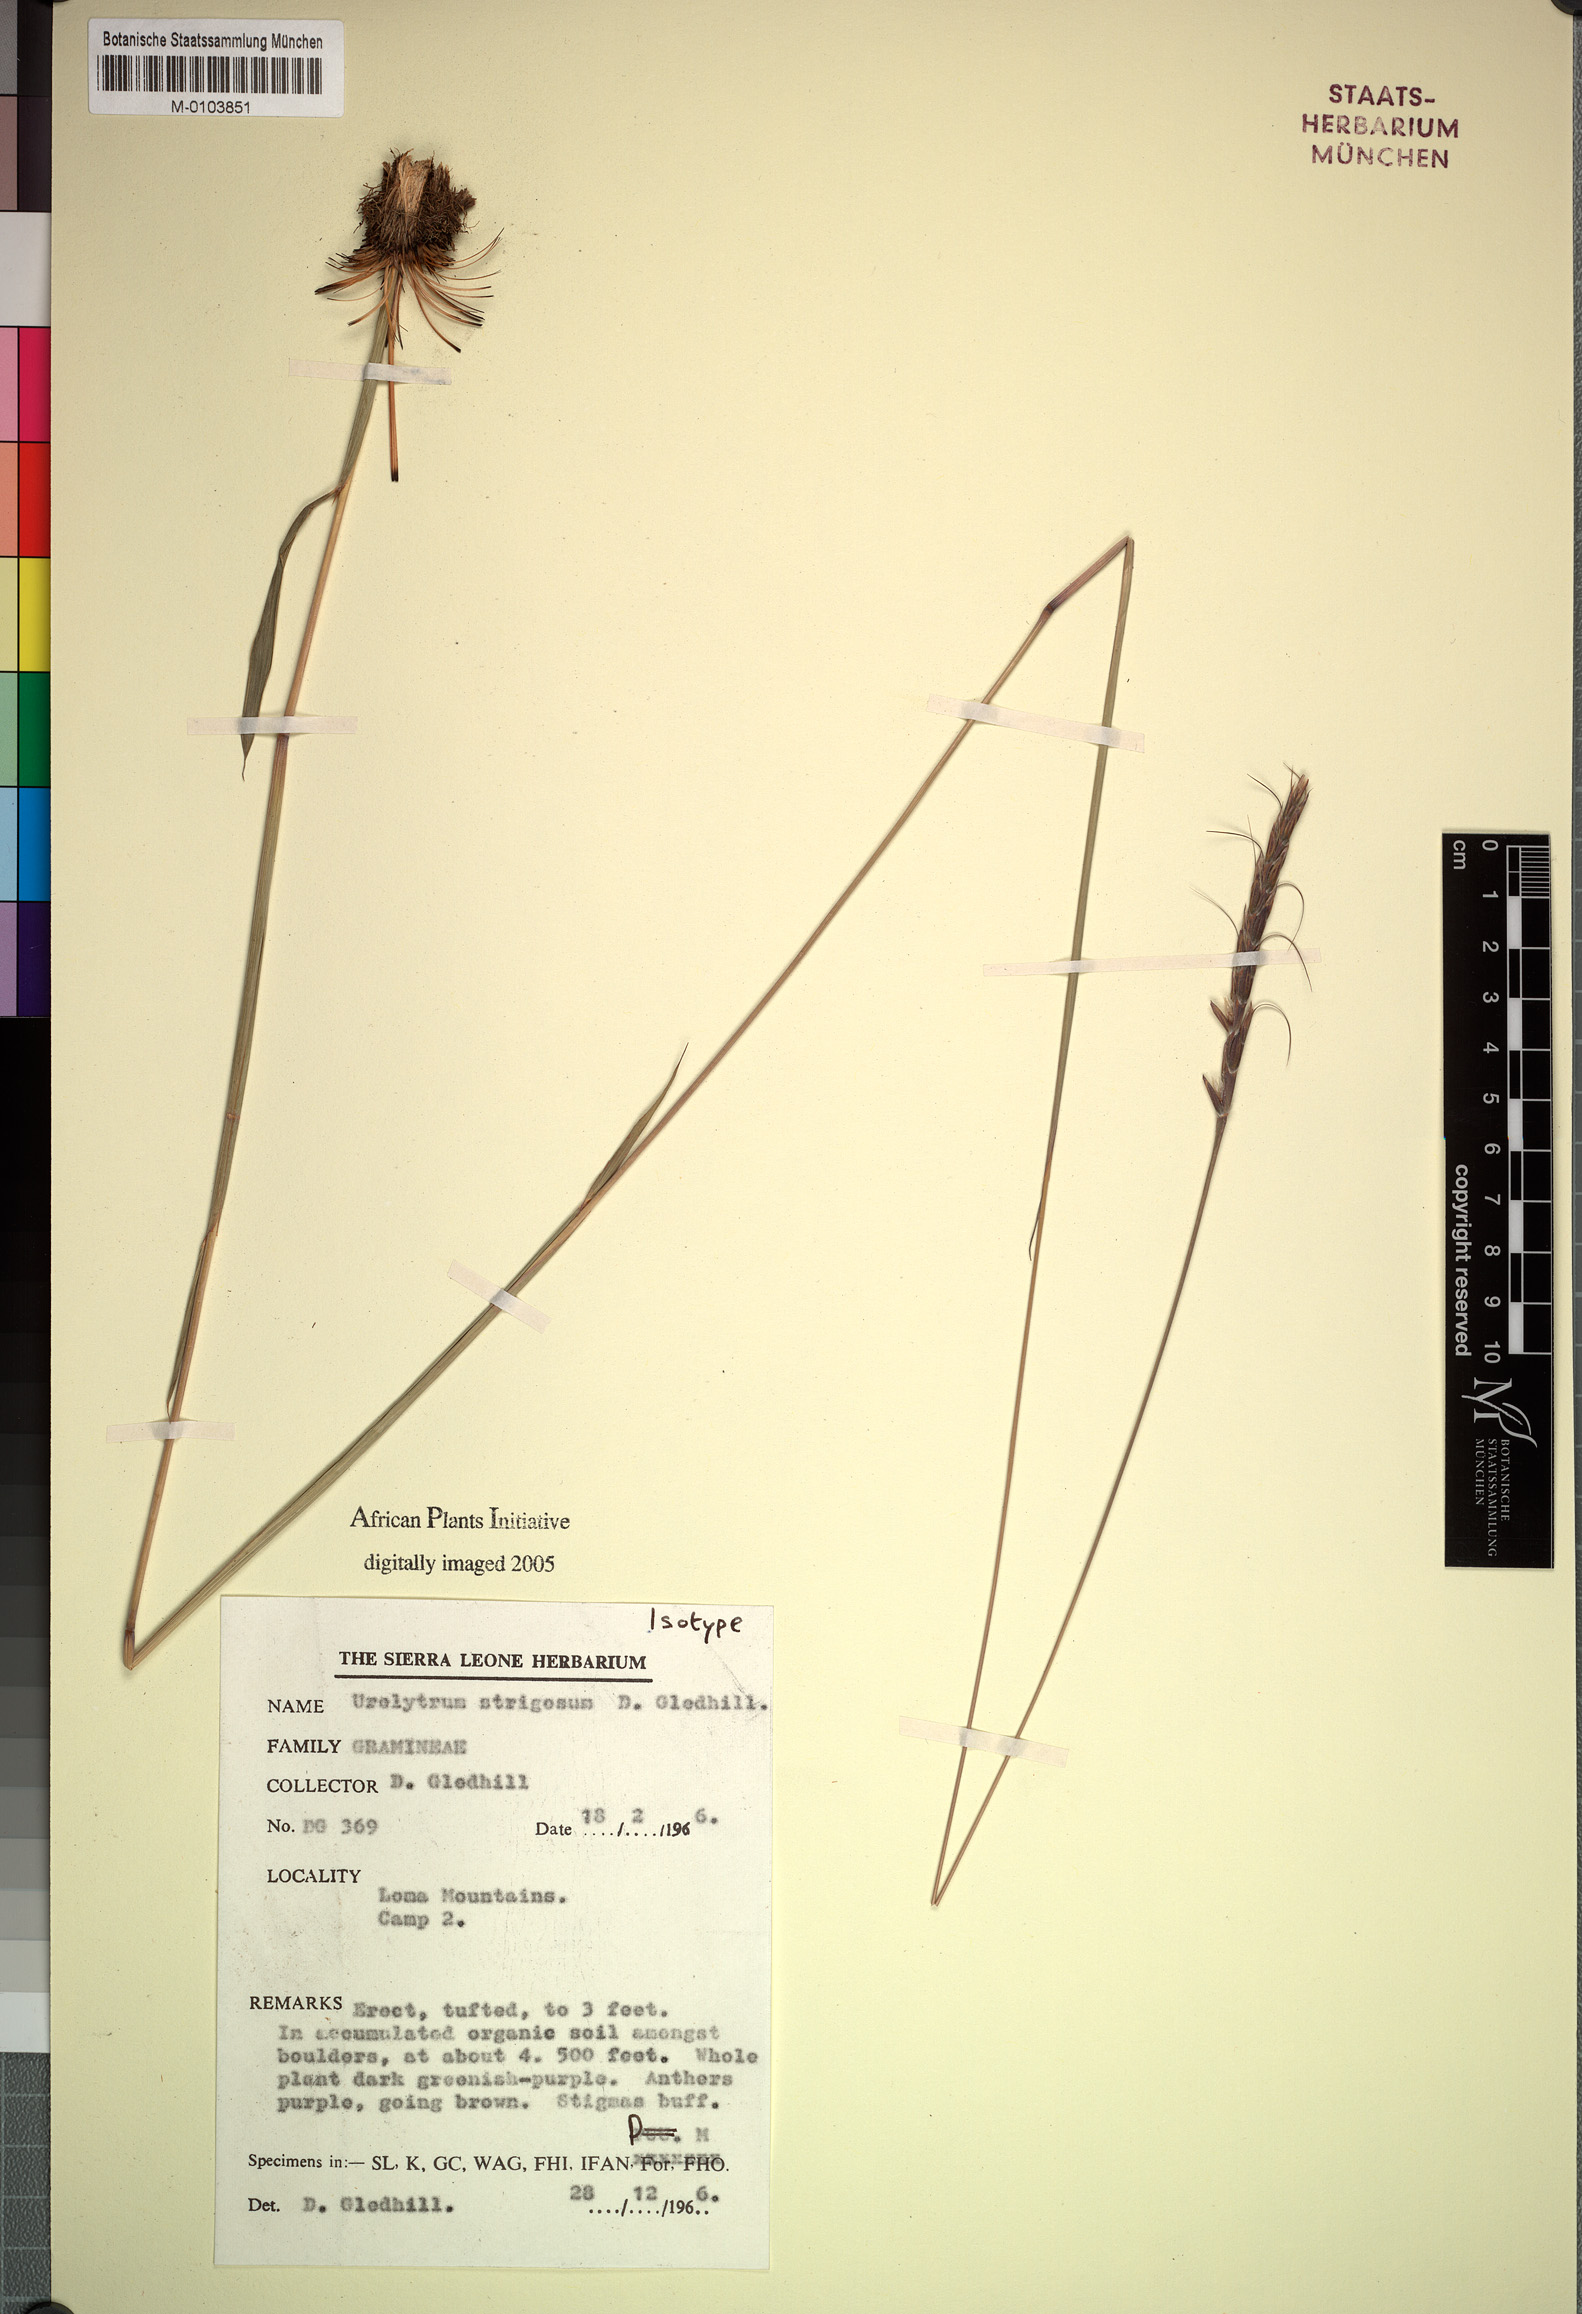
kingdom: Plantae
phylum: Tracheophyta
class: Liliopsida
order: Poales
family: Poaceae
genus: Loxodera
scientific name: Loxodera strigosa
